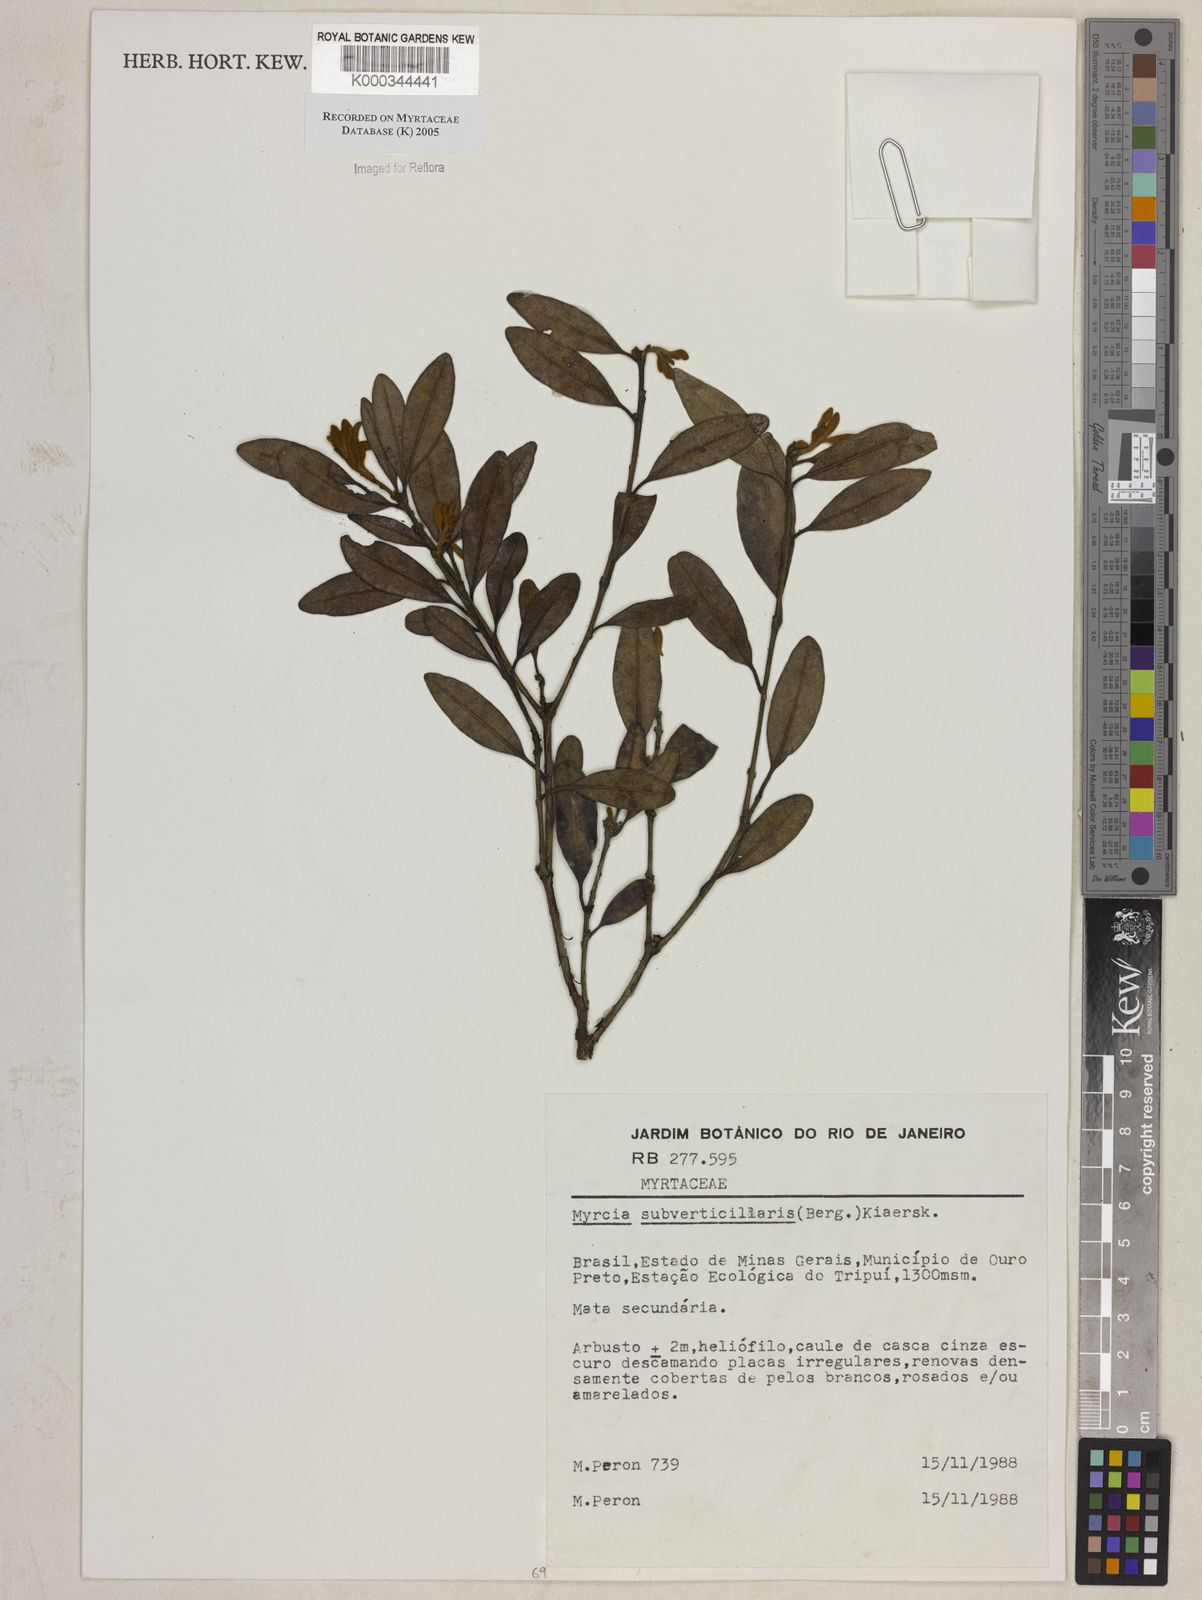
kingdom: Plantae
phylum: Tracheophyta
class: Magnoliopsida
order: Myrtales
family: Myrtaceae
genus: Myrcia
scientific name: Myrcia
